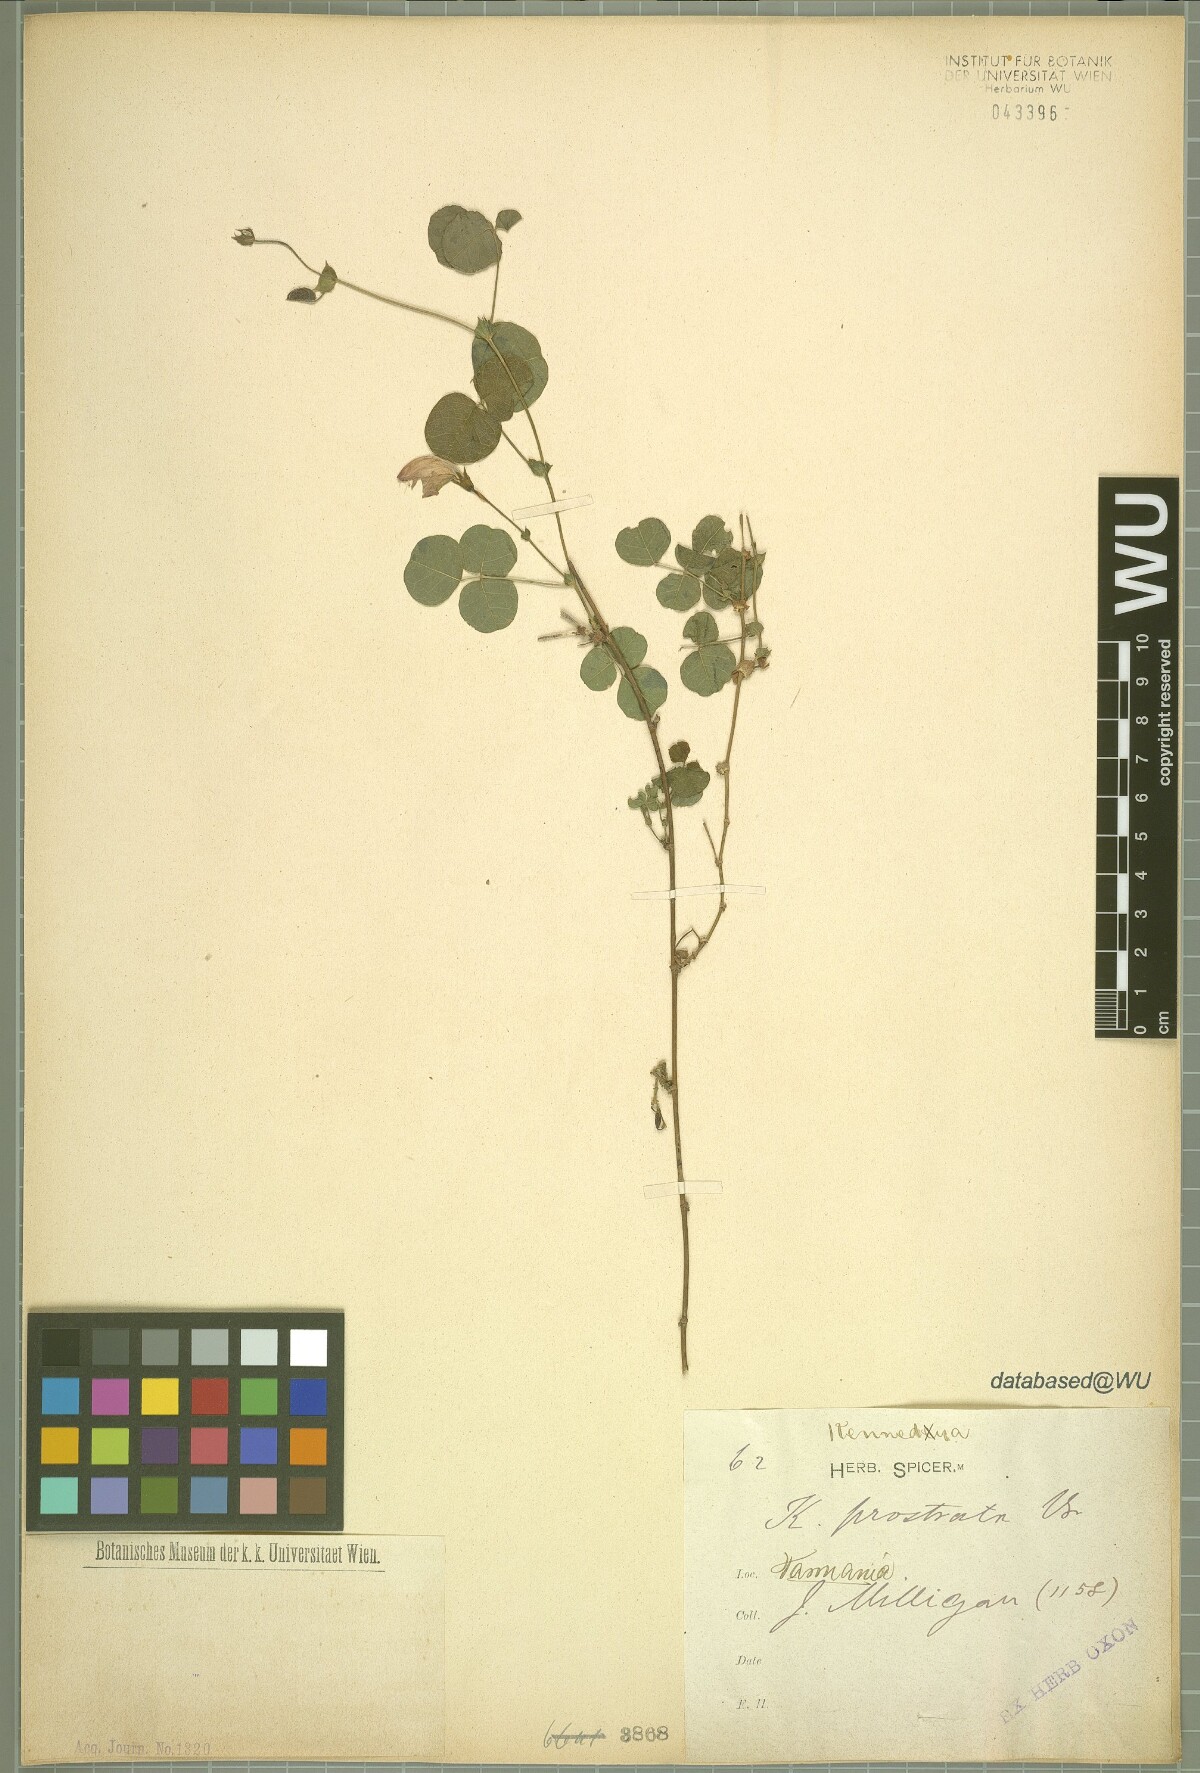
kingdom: Plantae
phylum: Tracheophyta
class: Magnoliopsida
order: Fabales
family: Fabaceae
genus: Kennedia
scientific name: Kennedia prostrata
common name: Running-postman
